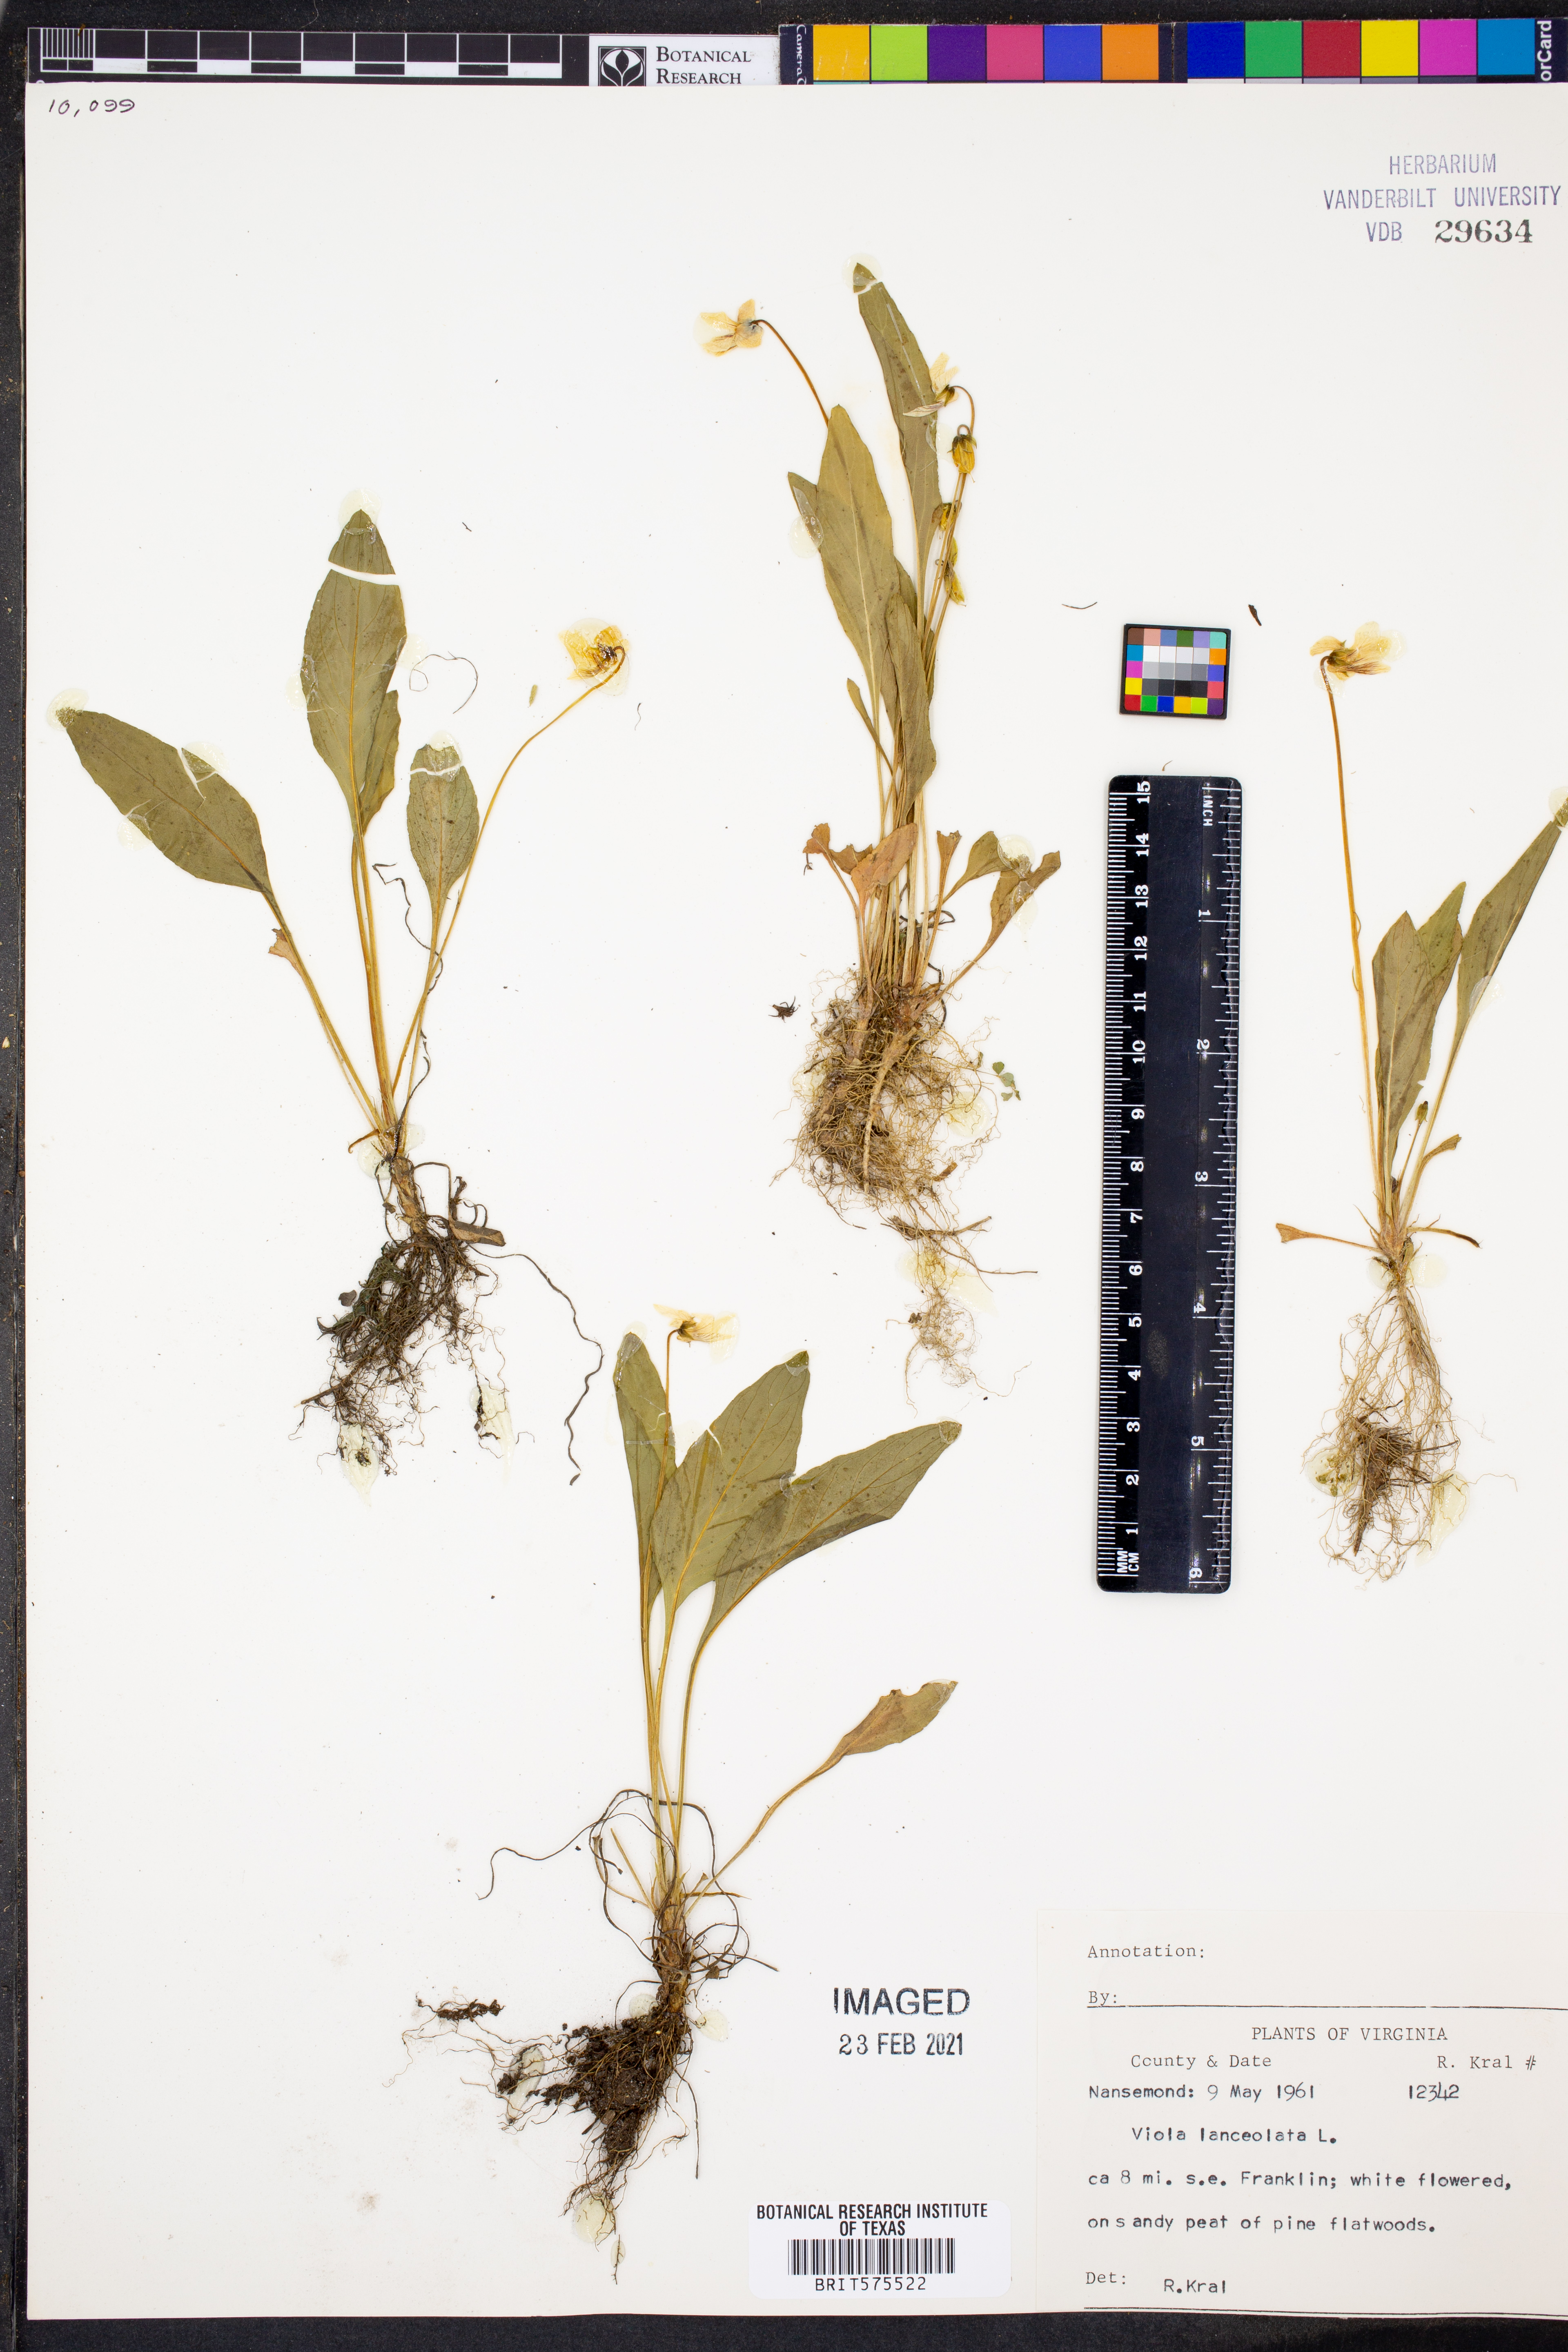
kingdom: Plantae
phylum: Tracheophyta
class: Magnoliopsida
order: Malpighiales
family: Violaceae
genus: Viola
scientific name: Viola lanceolata
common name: Bog white violet
